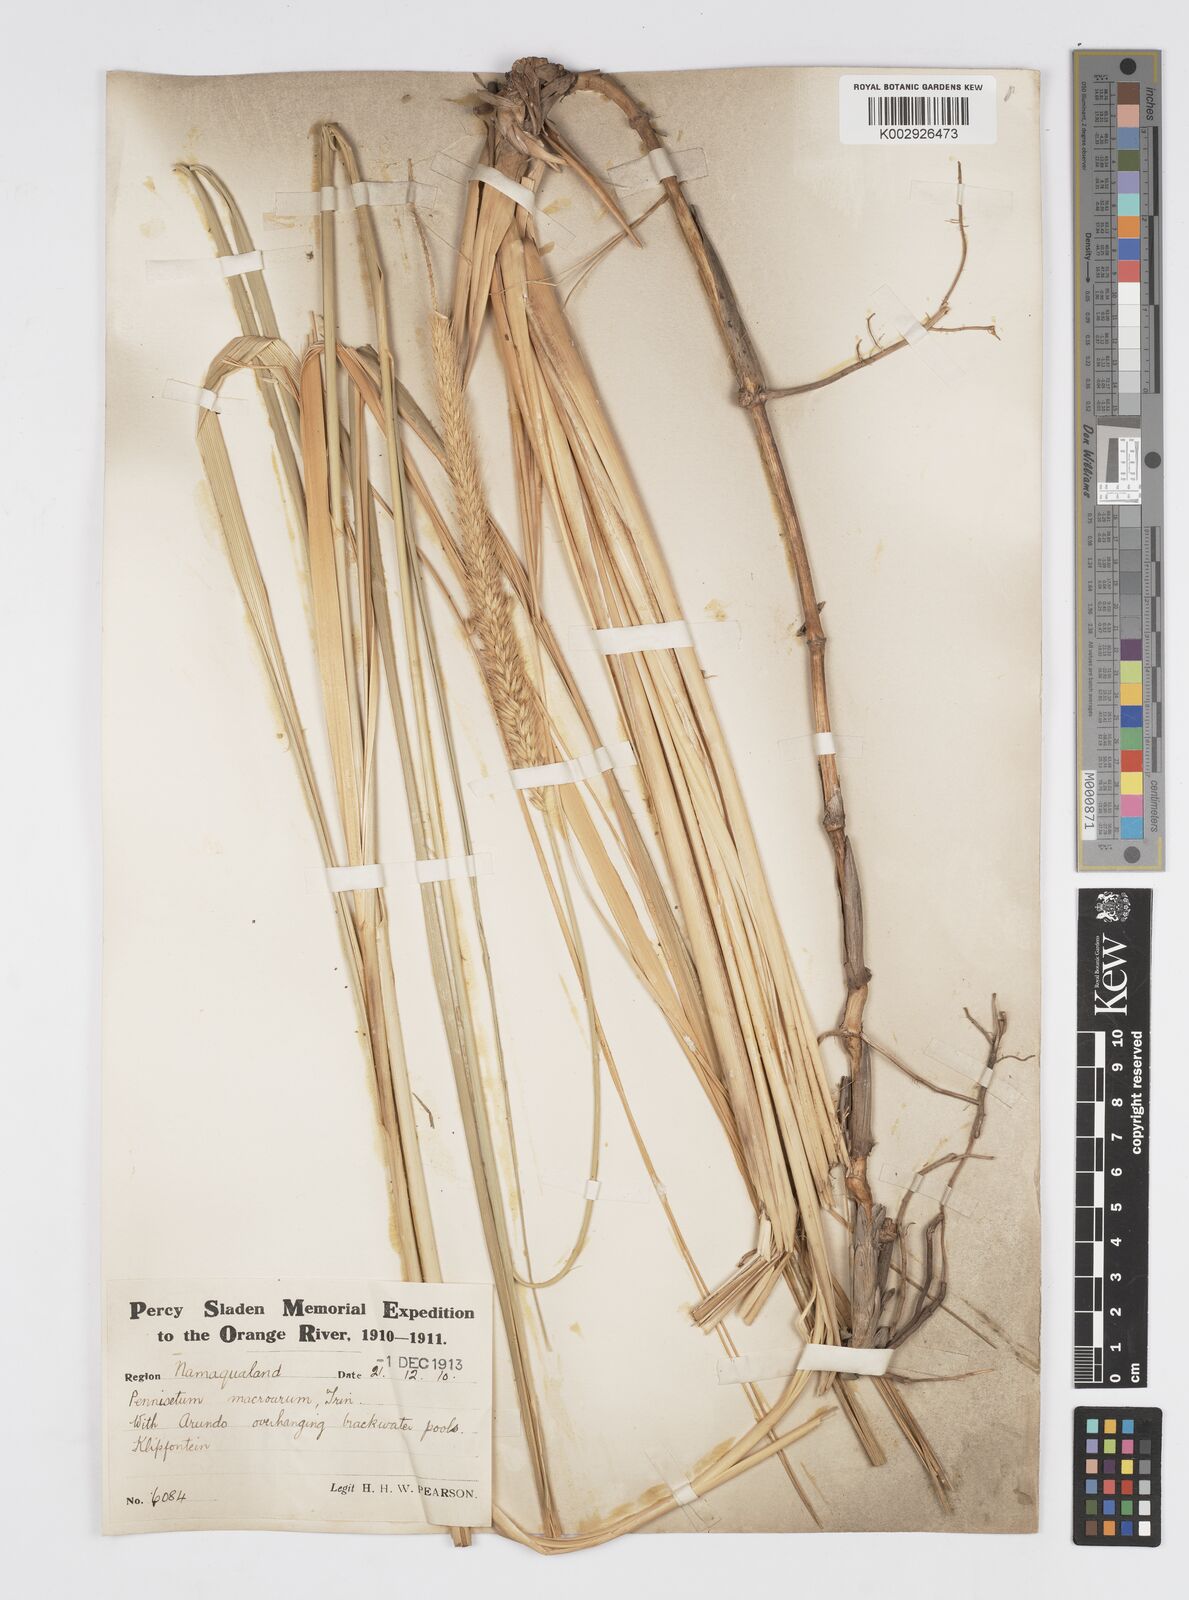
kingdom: Plantae
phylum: Tracheophyta
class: Liliopsida
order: Poales
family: Poaceae
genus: Cenchrus
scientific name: Cenchrus caudatus
